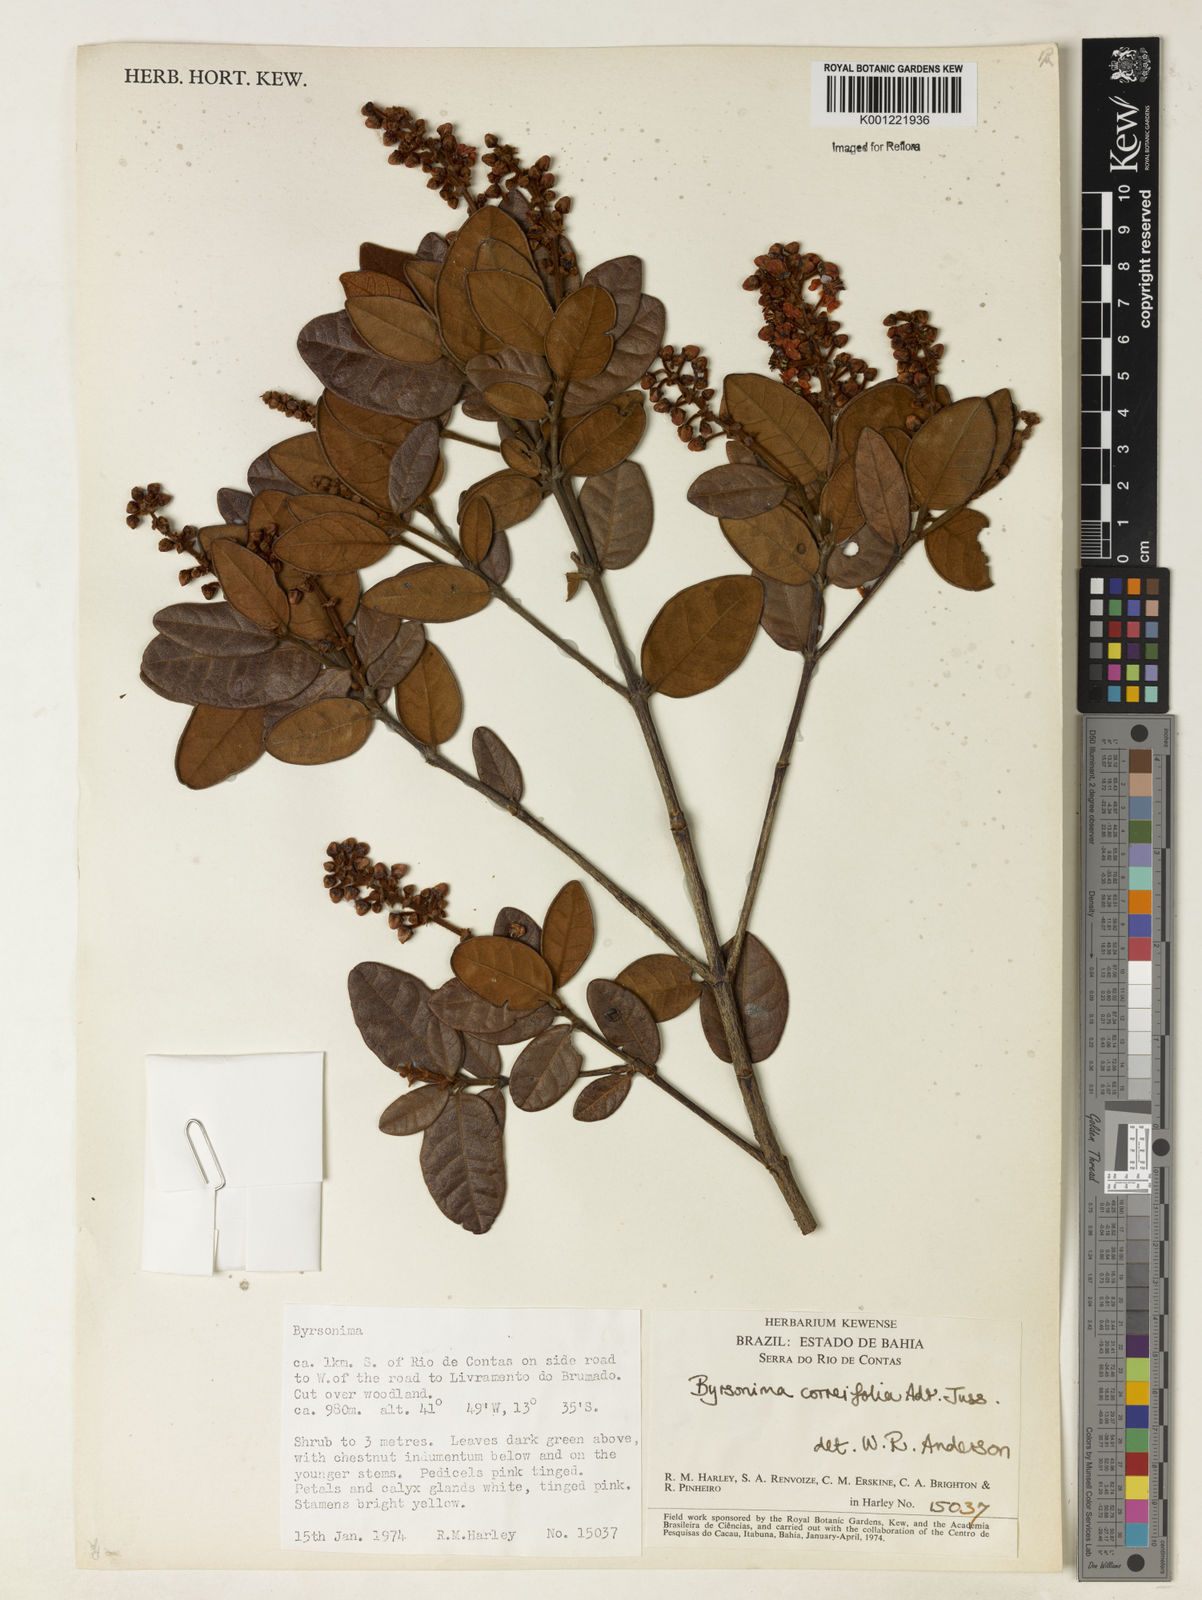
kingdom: Plantae
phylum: Tracheophyta
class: Magnoliopsida
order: Malpighiales
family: Malpighiaceae
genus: Byrsonima
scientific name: Byrsonima correifolia
